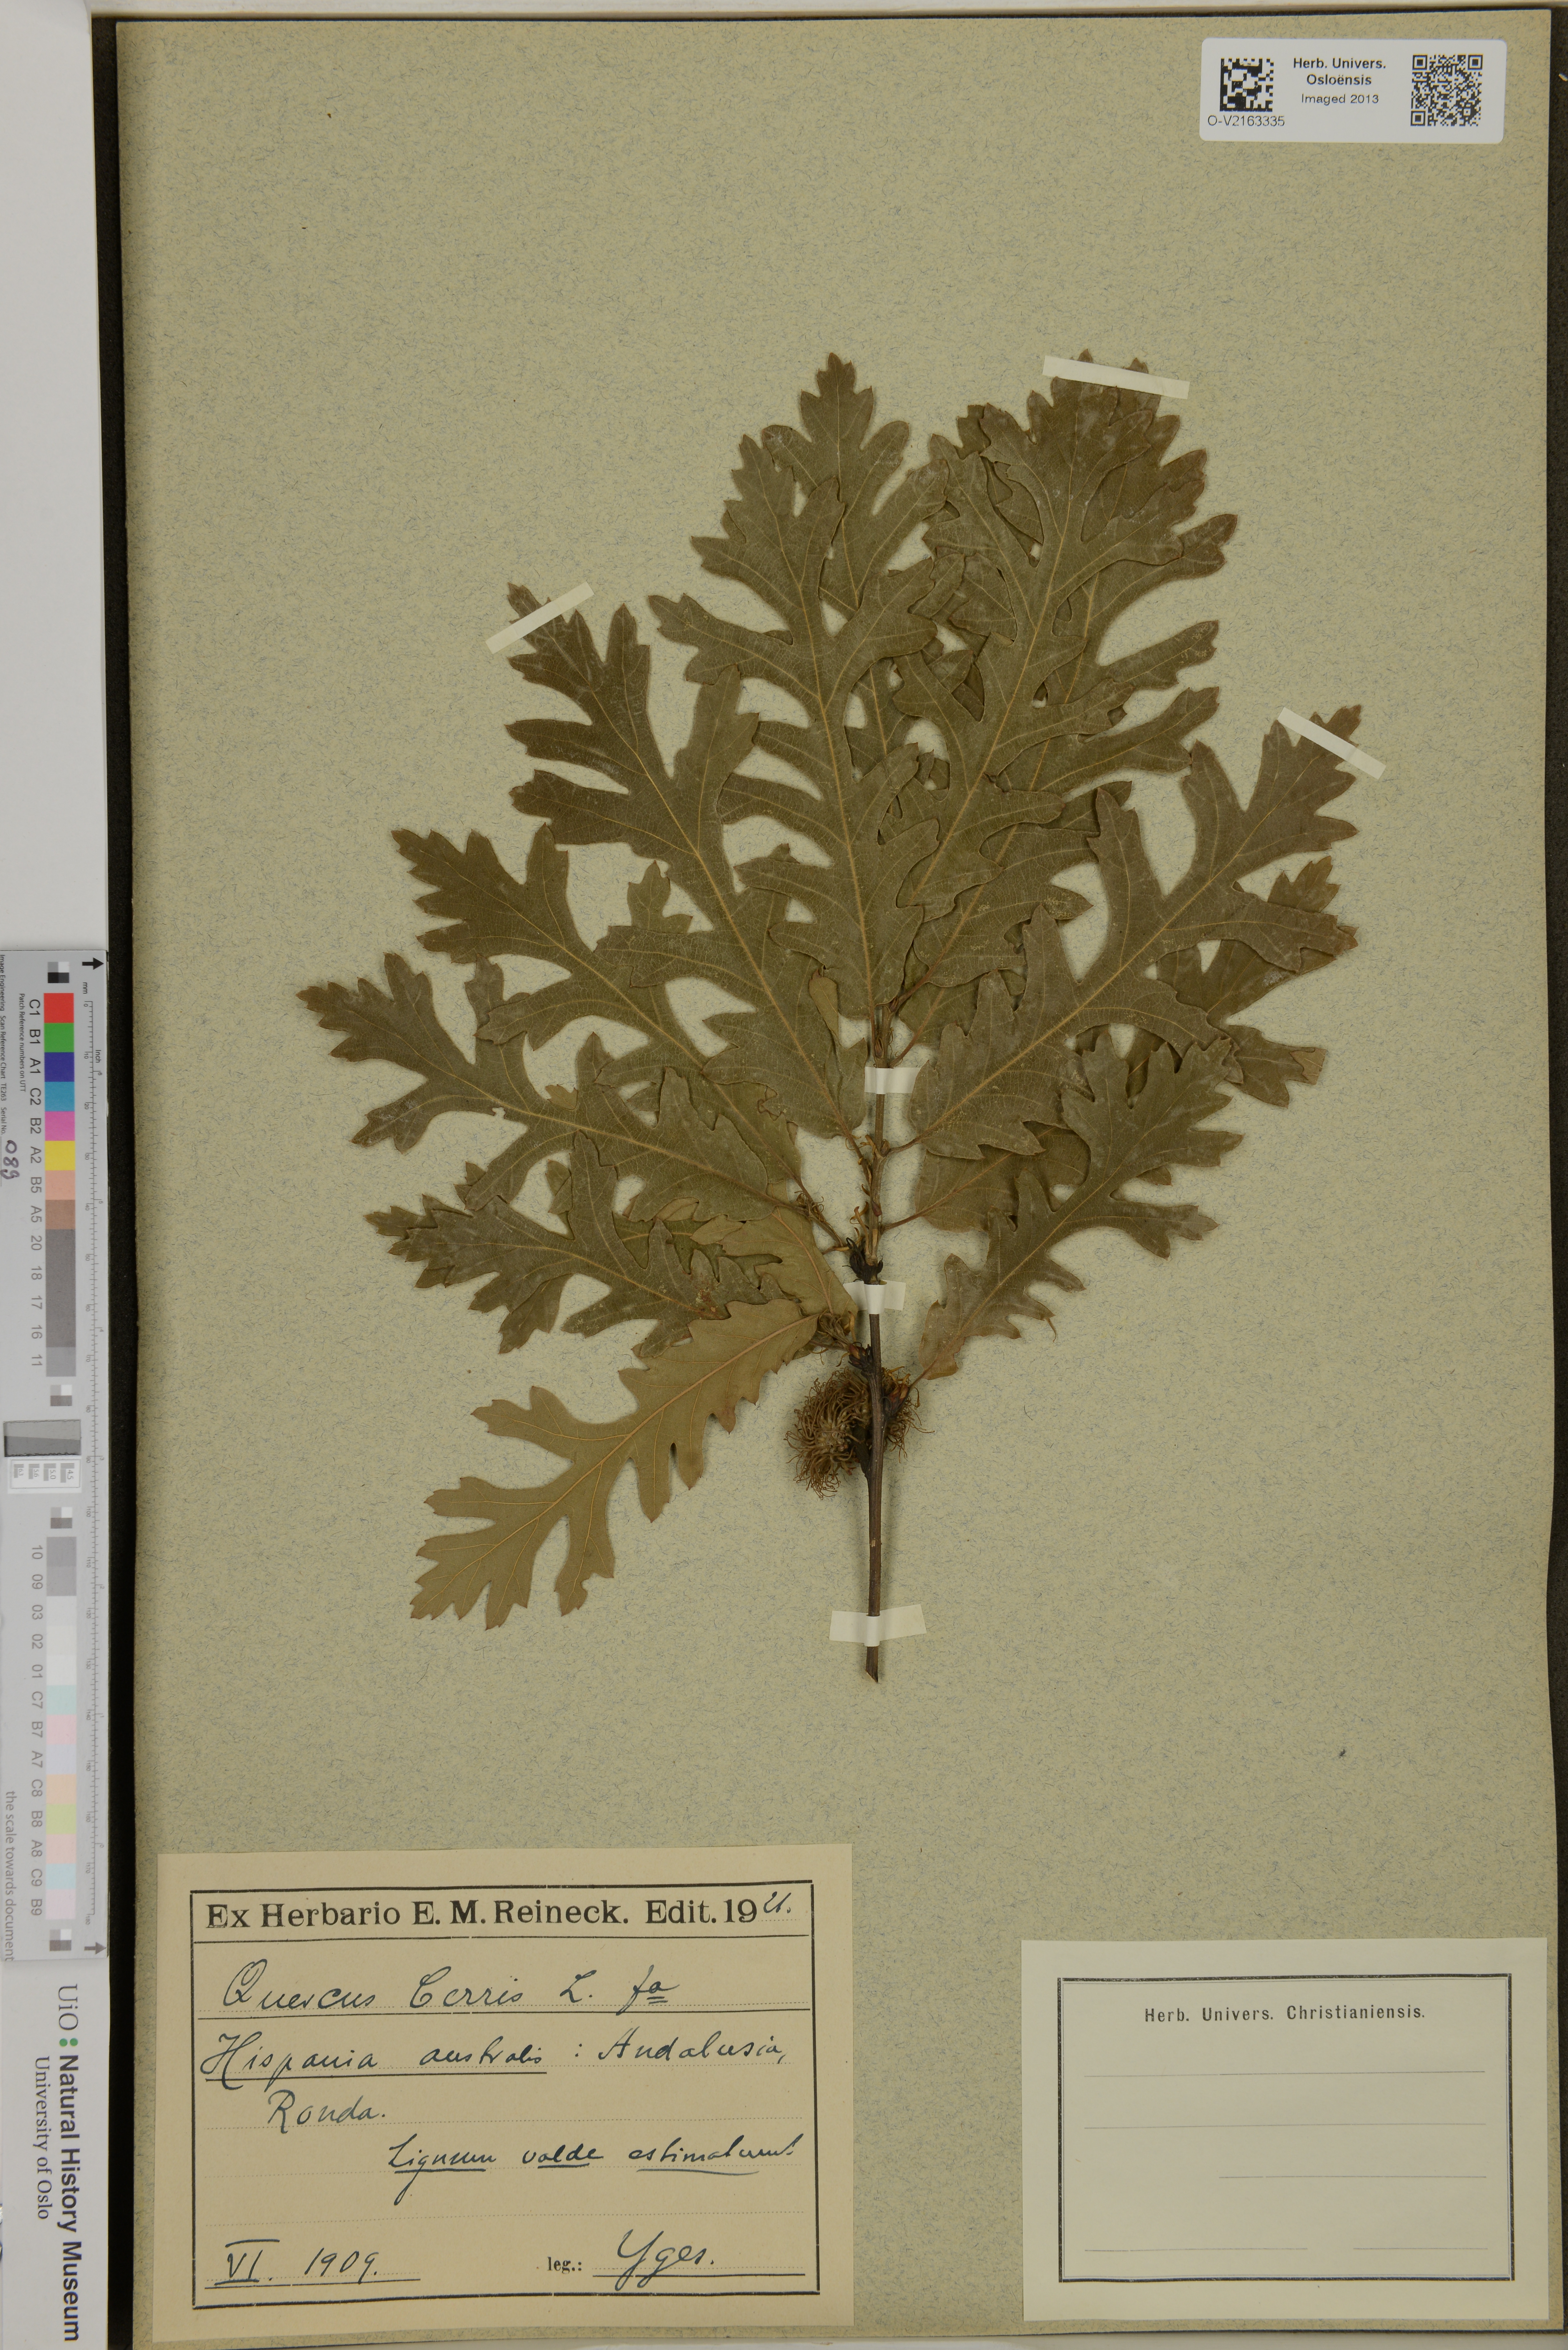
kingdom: Plantae
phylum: Tracheophyta
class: Magnoliopsida
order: Fagales
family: Fagaceae
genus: Quercus
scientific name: Quercus cerris
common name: Turkey oak
